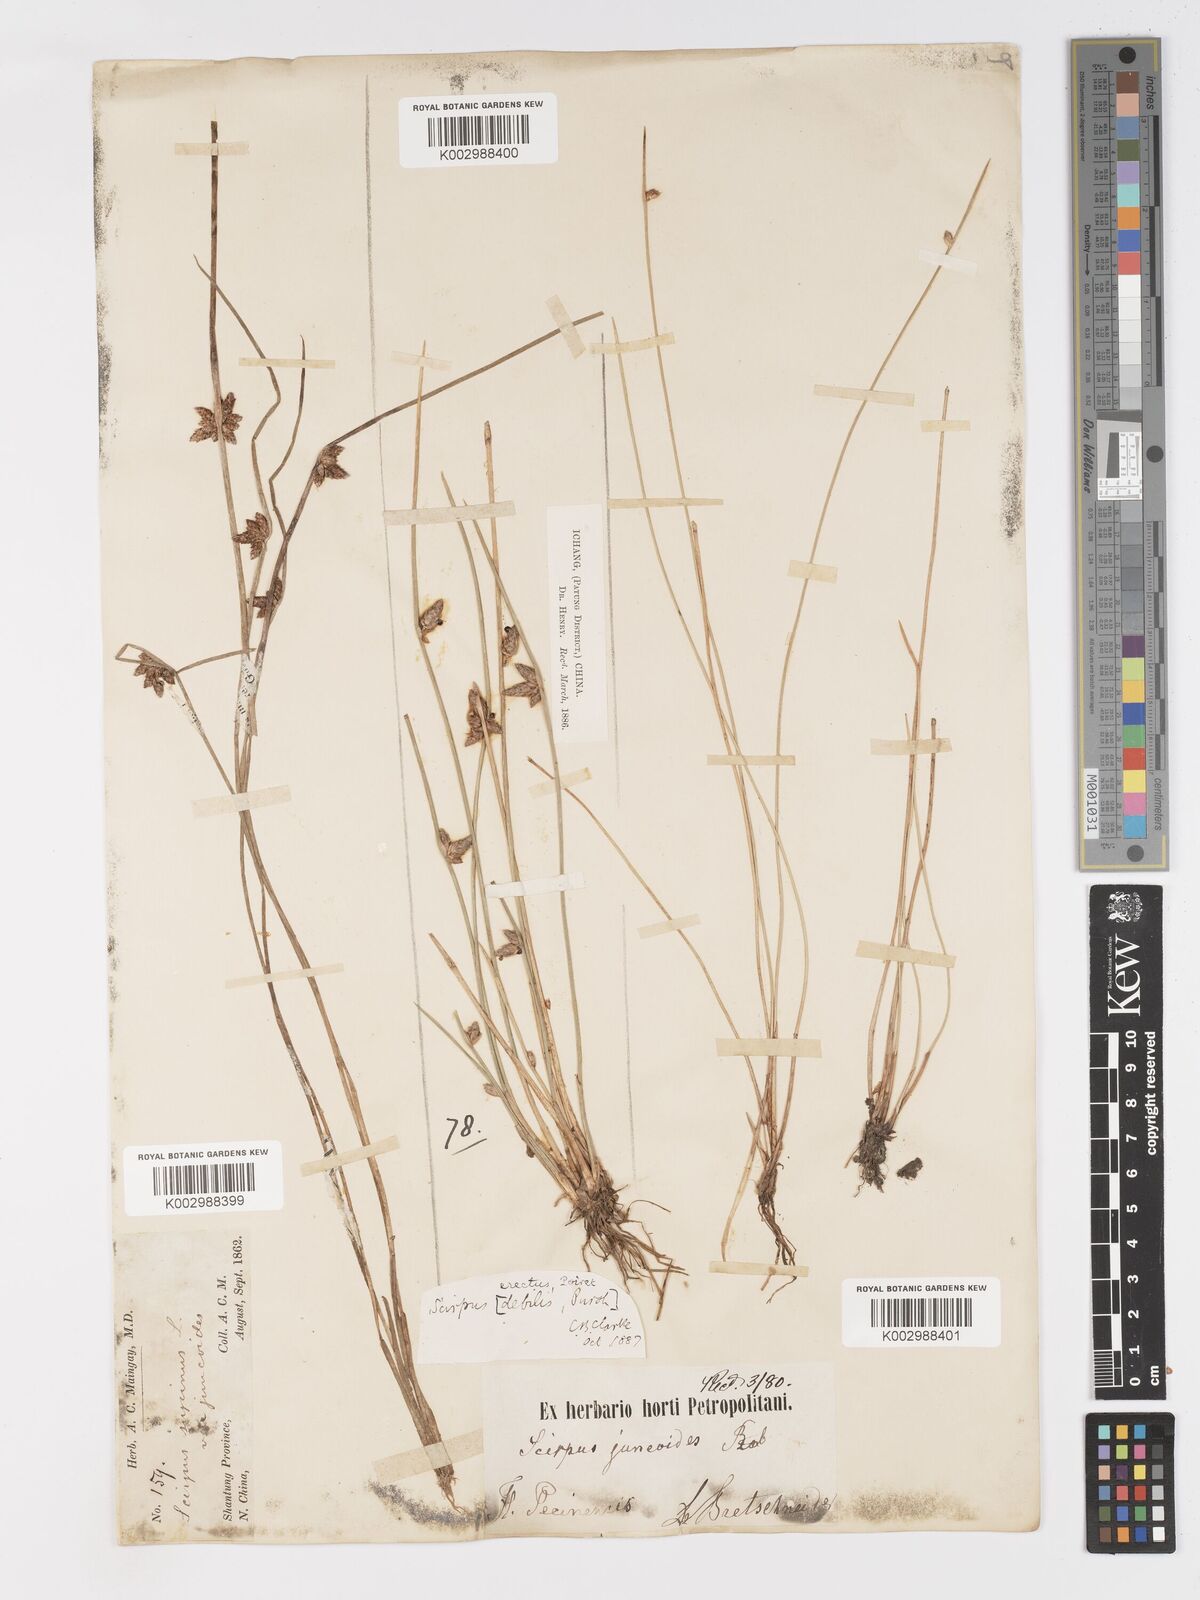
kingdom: Plantae
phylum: Tracheophyta
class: Liliopsida
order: Poales
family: Cyperaceae
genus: Schoenoplectiella
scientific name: Schoenoplectiella erecta
